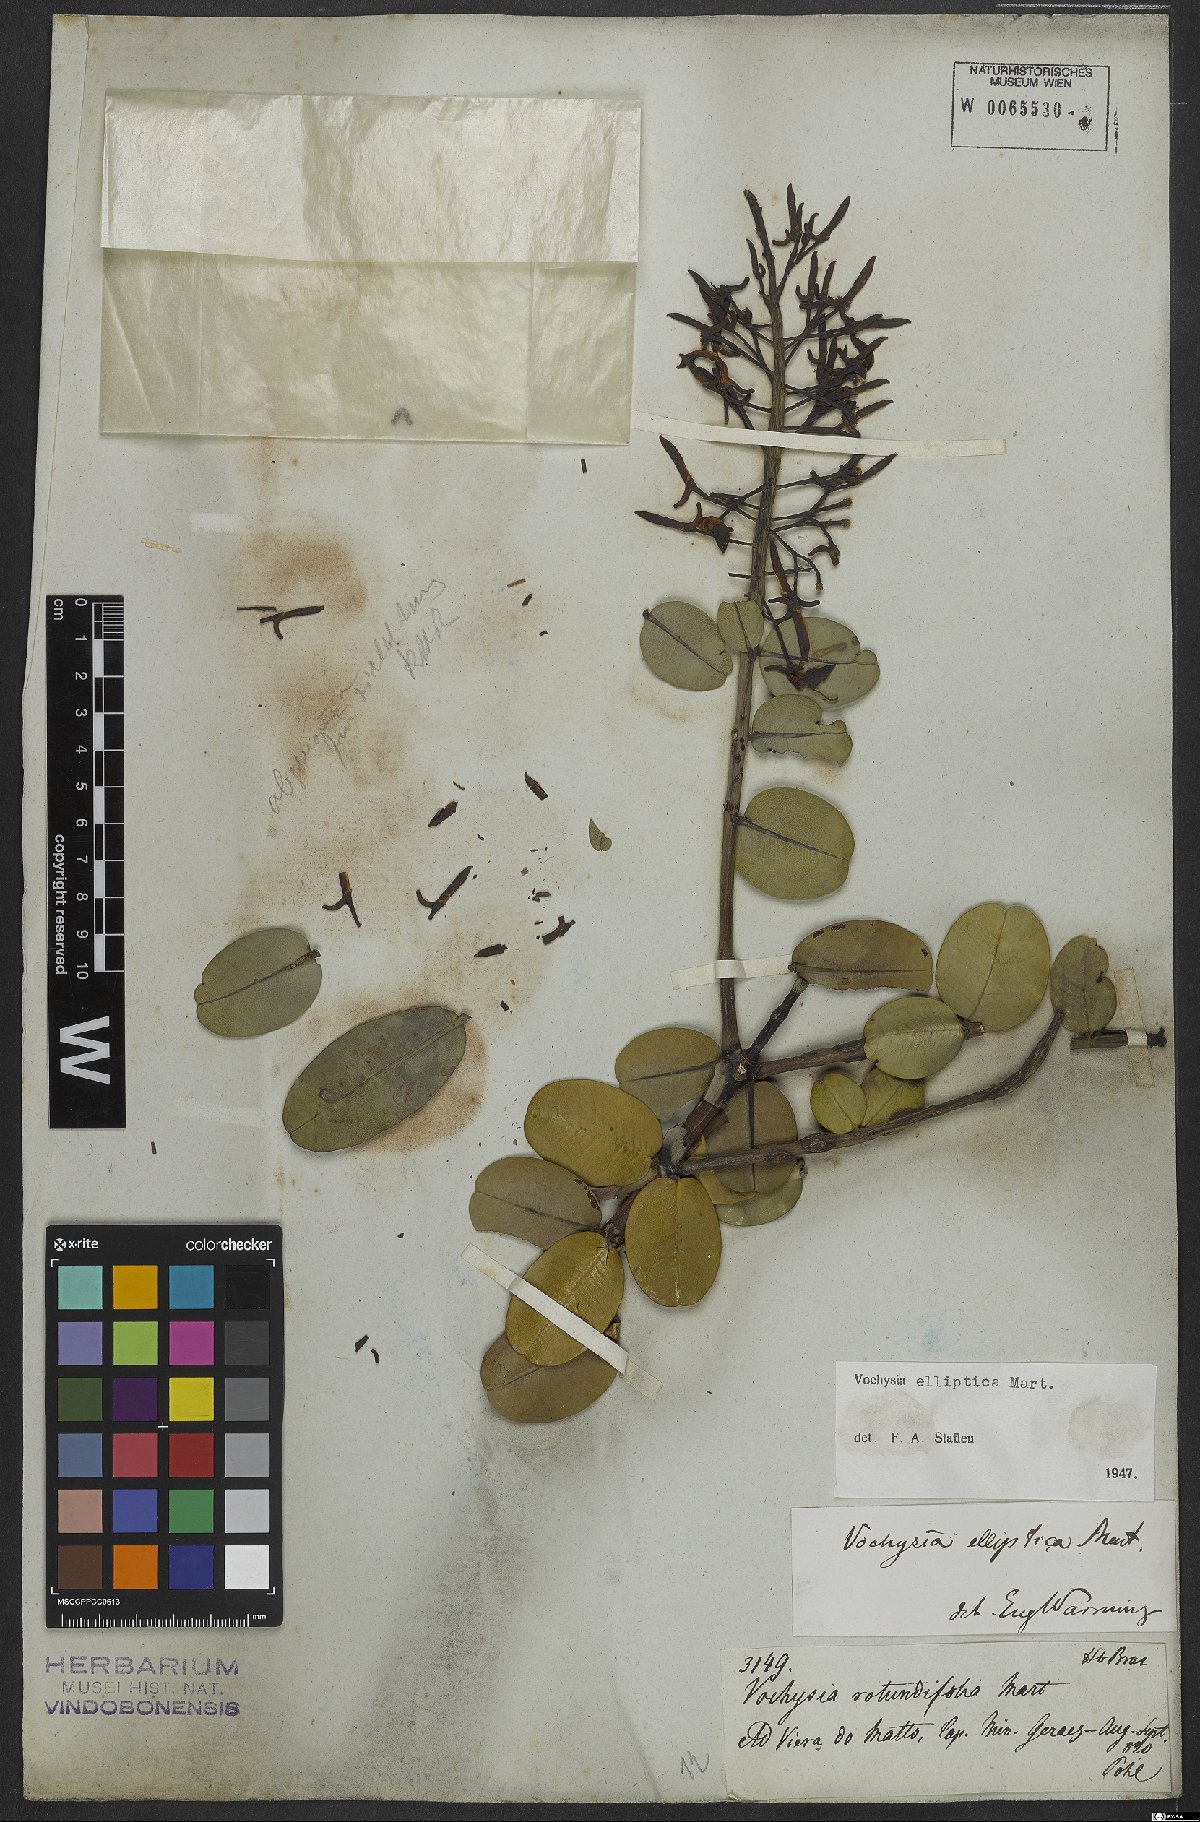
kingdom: Plantae
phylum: Tracheophyta
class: Magnoliopsida
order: Myrtales
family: Vochysiaceae
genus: Vochysia
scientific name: Vochysia elliptica
